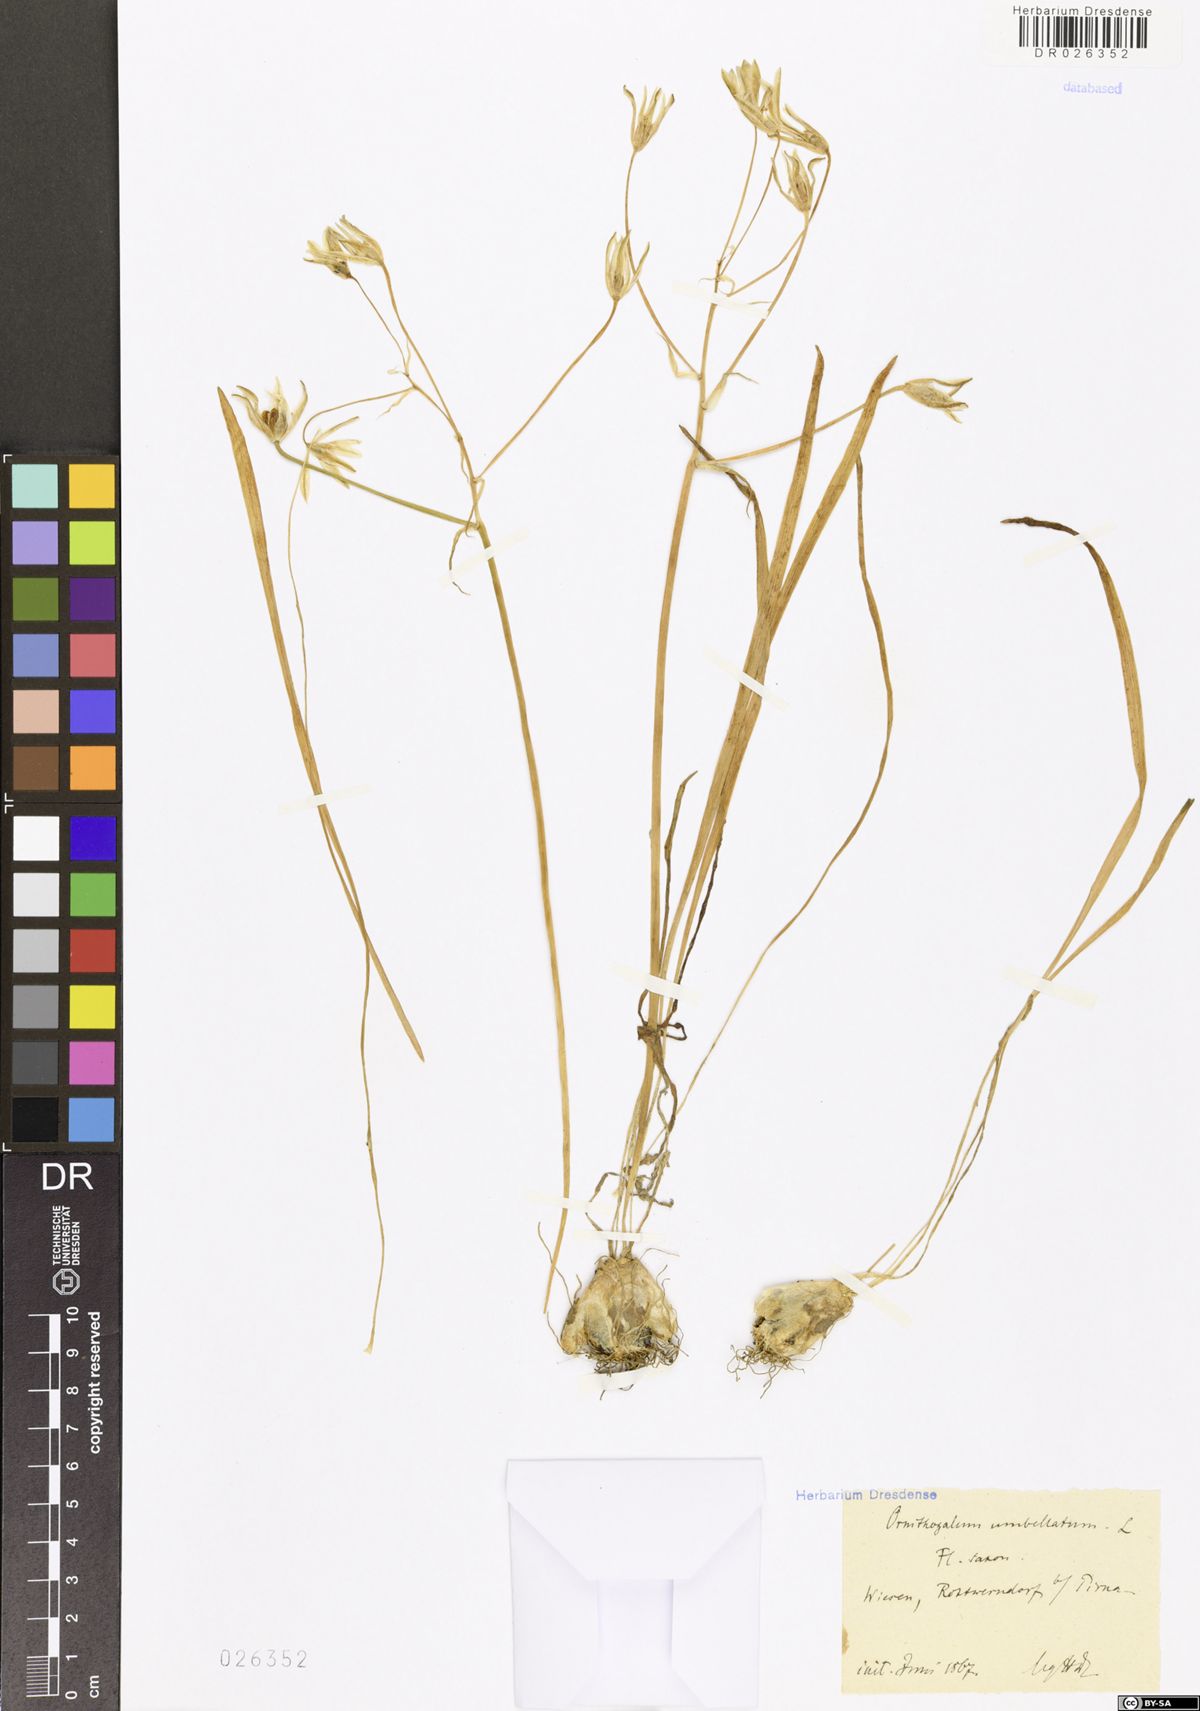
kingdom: Plantae
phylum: Tracheophyta
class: Liliopsida
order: Asparagales
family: Asparagaceae
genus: Ornithogalum
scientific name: Ornithogalum umbellatum
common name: Garden star-of-bethlehem
